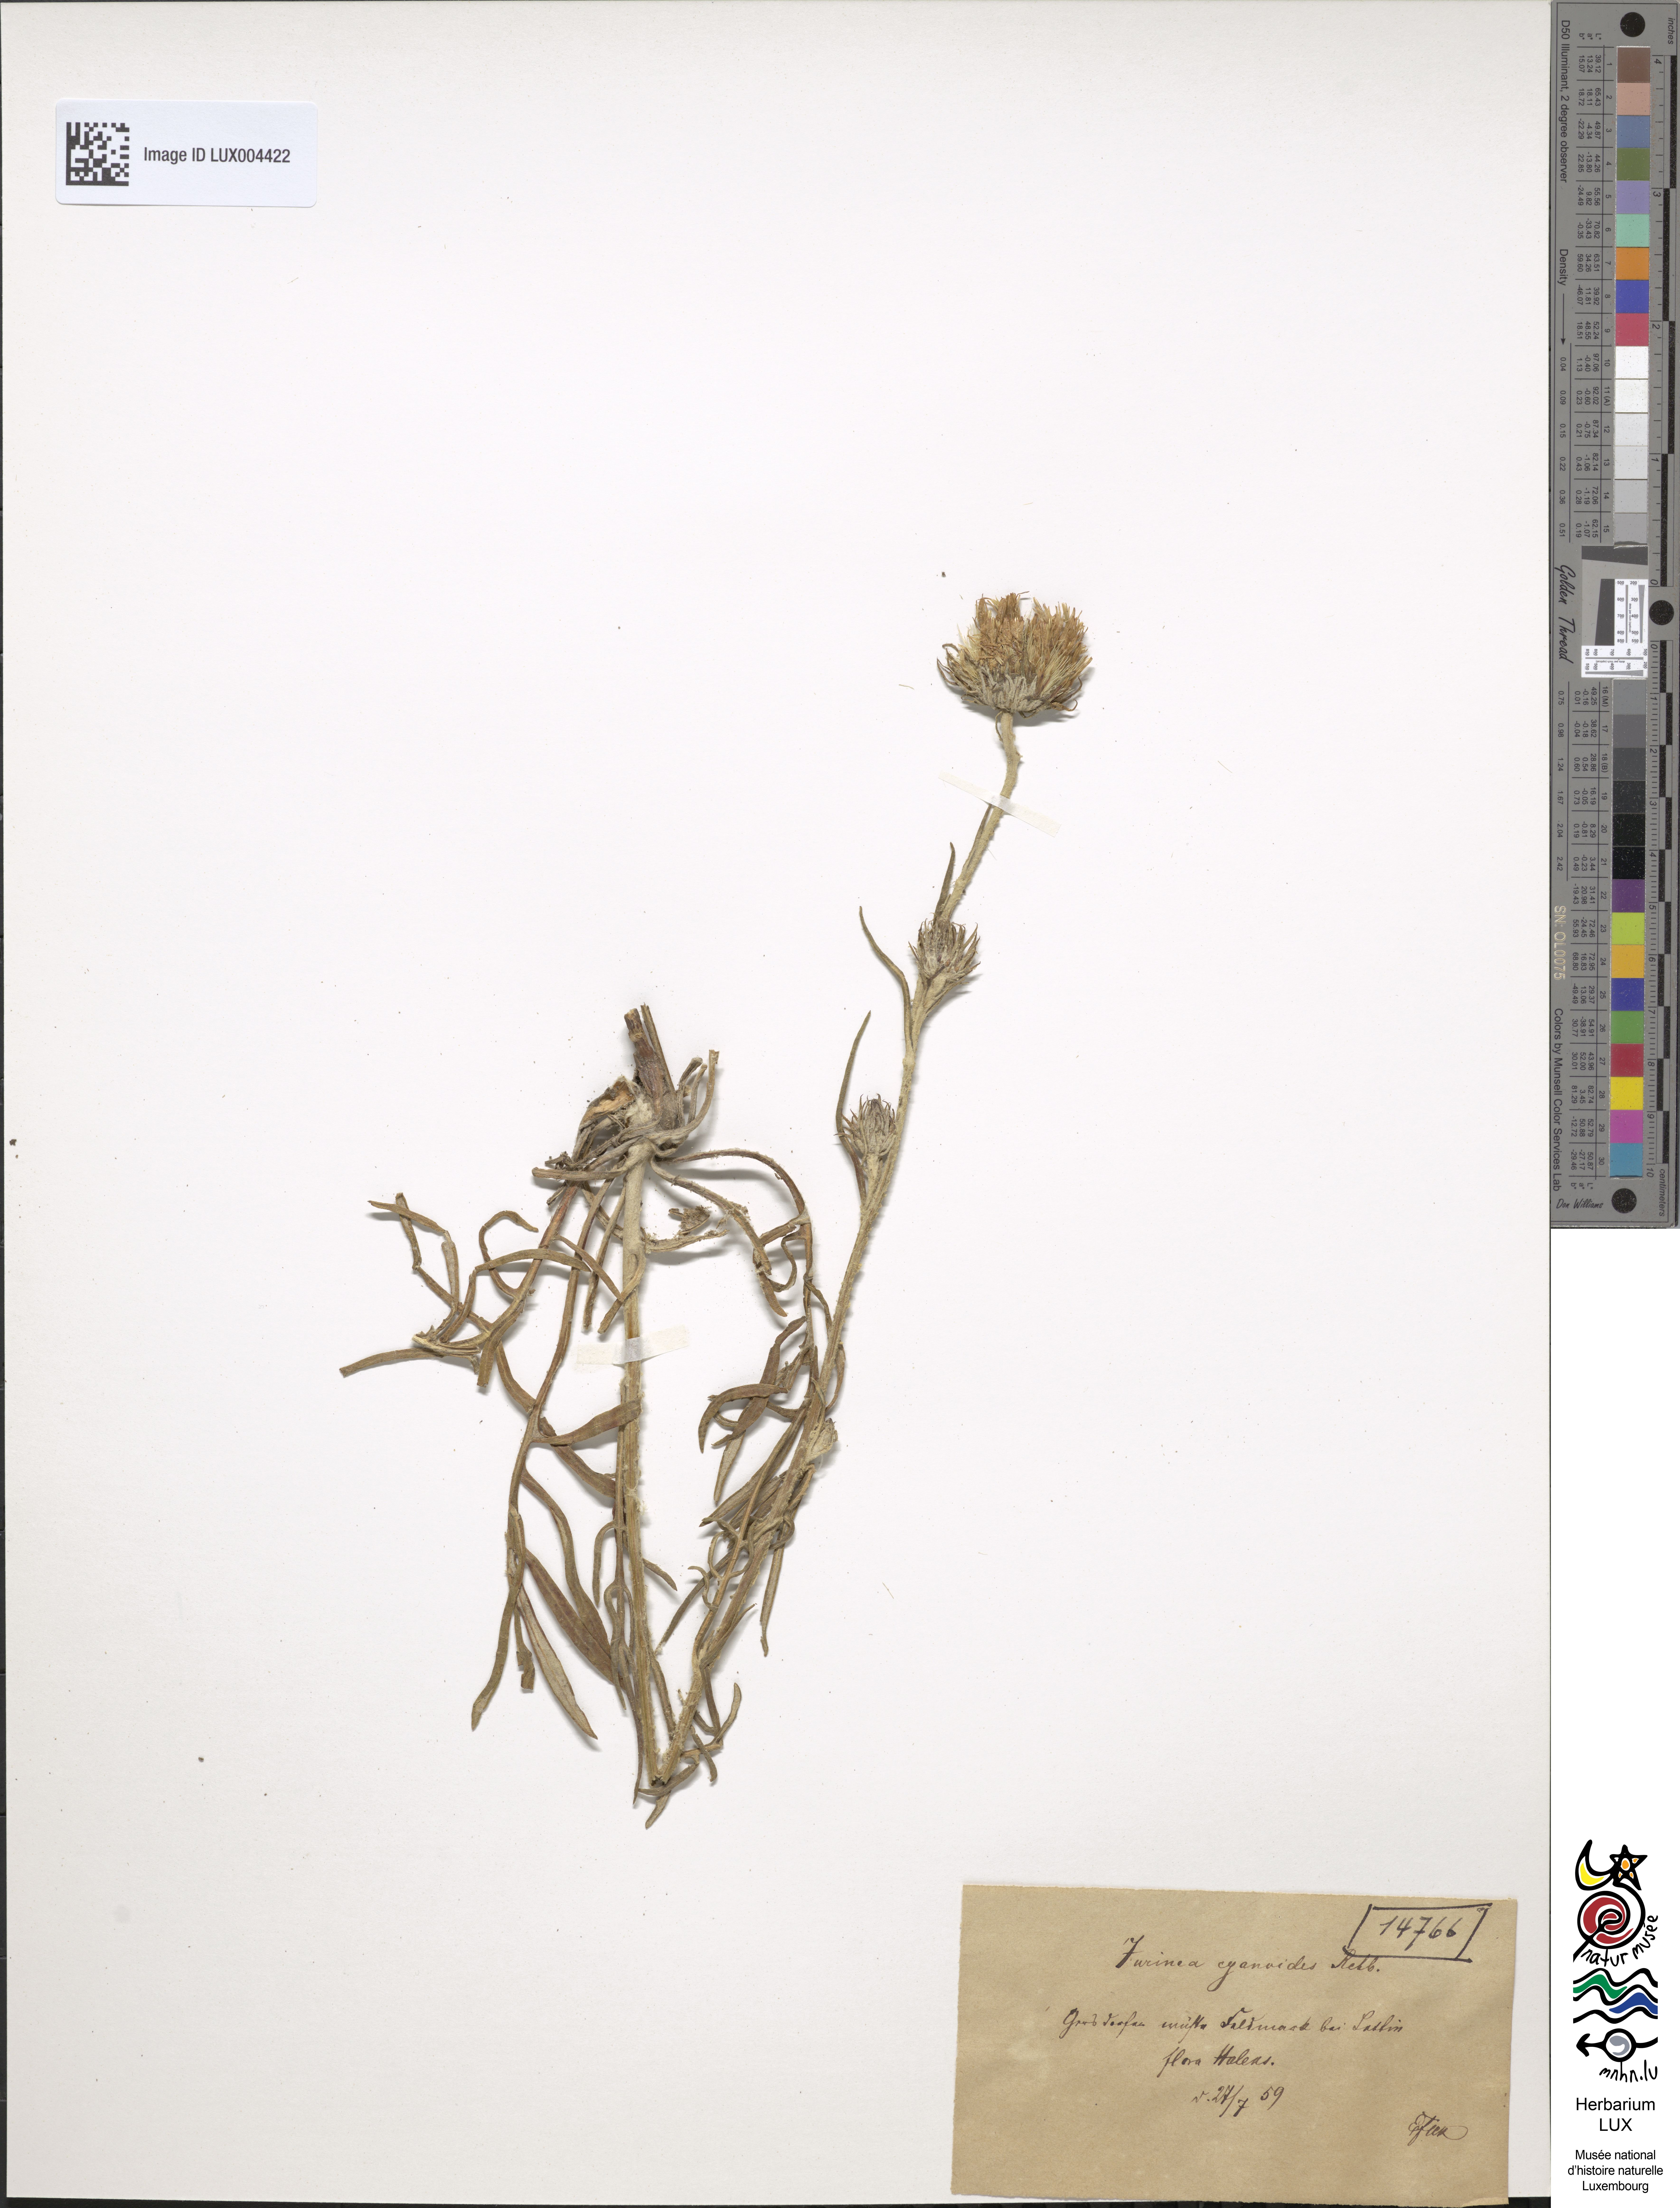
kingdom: Plantae
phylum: Tracheophyta
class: Magnoliopsida
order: Asterales
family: Asteraceae
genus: Jurinea
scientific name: Jurinea cyanoides
